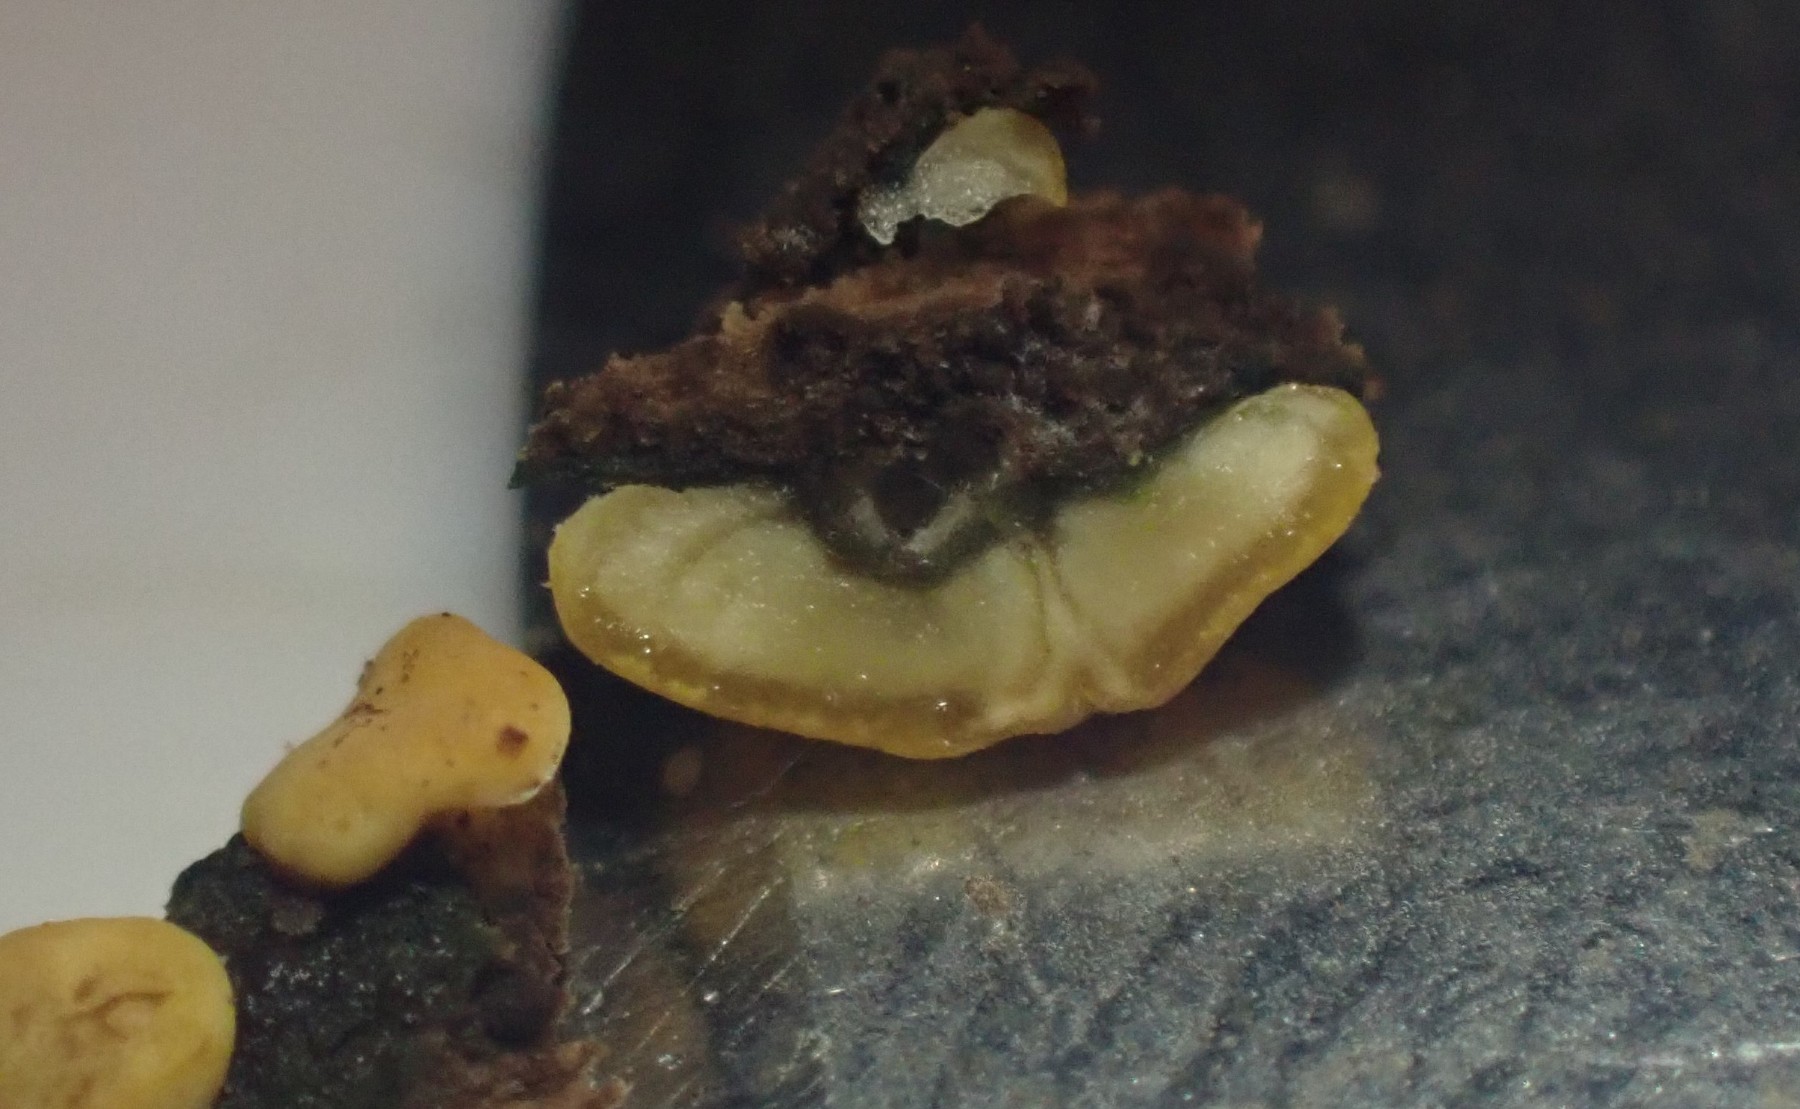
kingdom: Fungi
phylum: Ascomycota
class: Sordariomycetes
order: Hypocreales
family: Hypocreaceae
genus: Trichoderma
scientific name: Trichoderma
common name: kødkerne
